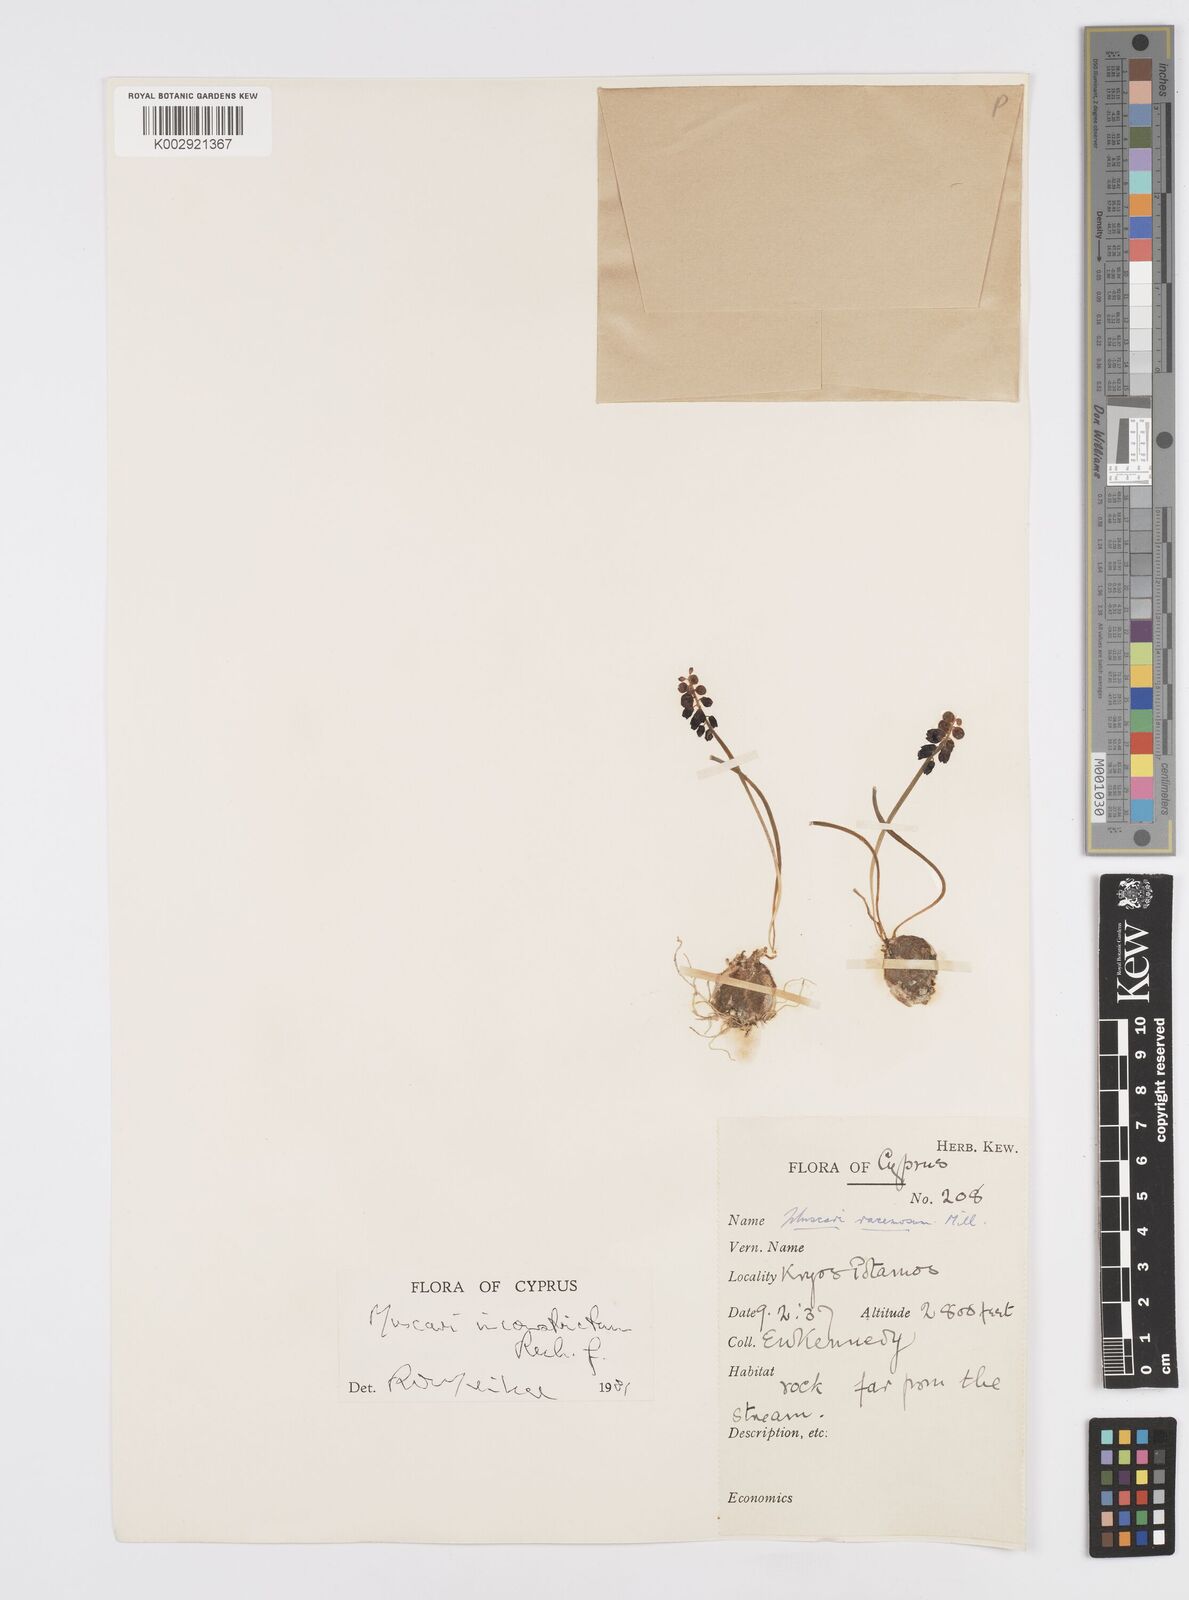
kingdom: Plantae
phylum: Tracheophyta
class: Liliopsida
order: Asparagales
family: Asparagaceae
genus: Muscari
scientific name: Muscari
